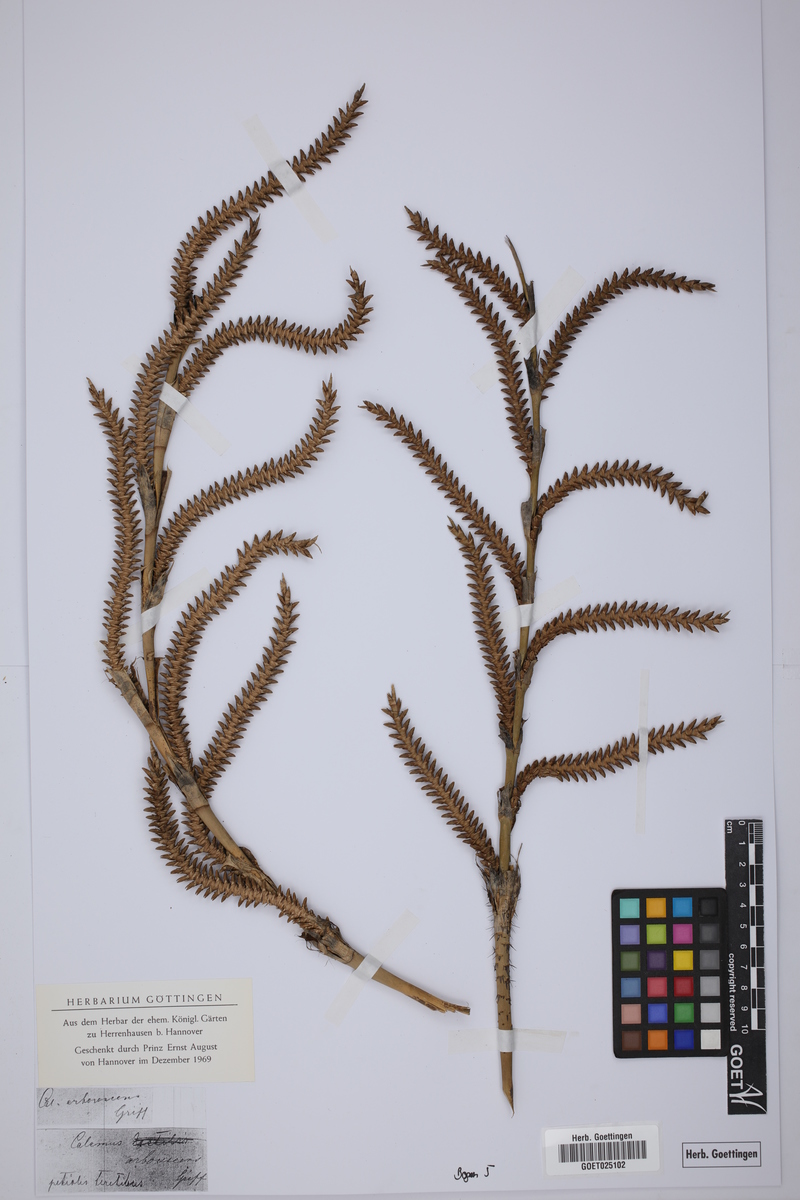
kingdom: Plantae
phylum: Tracheophyta
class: Liliopsida
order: Arecales
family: Arecaceae
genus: Calamus
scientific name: Calamus arborescens
